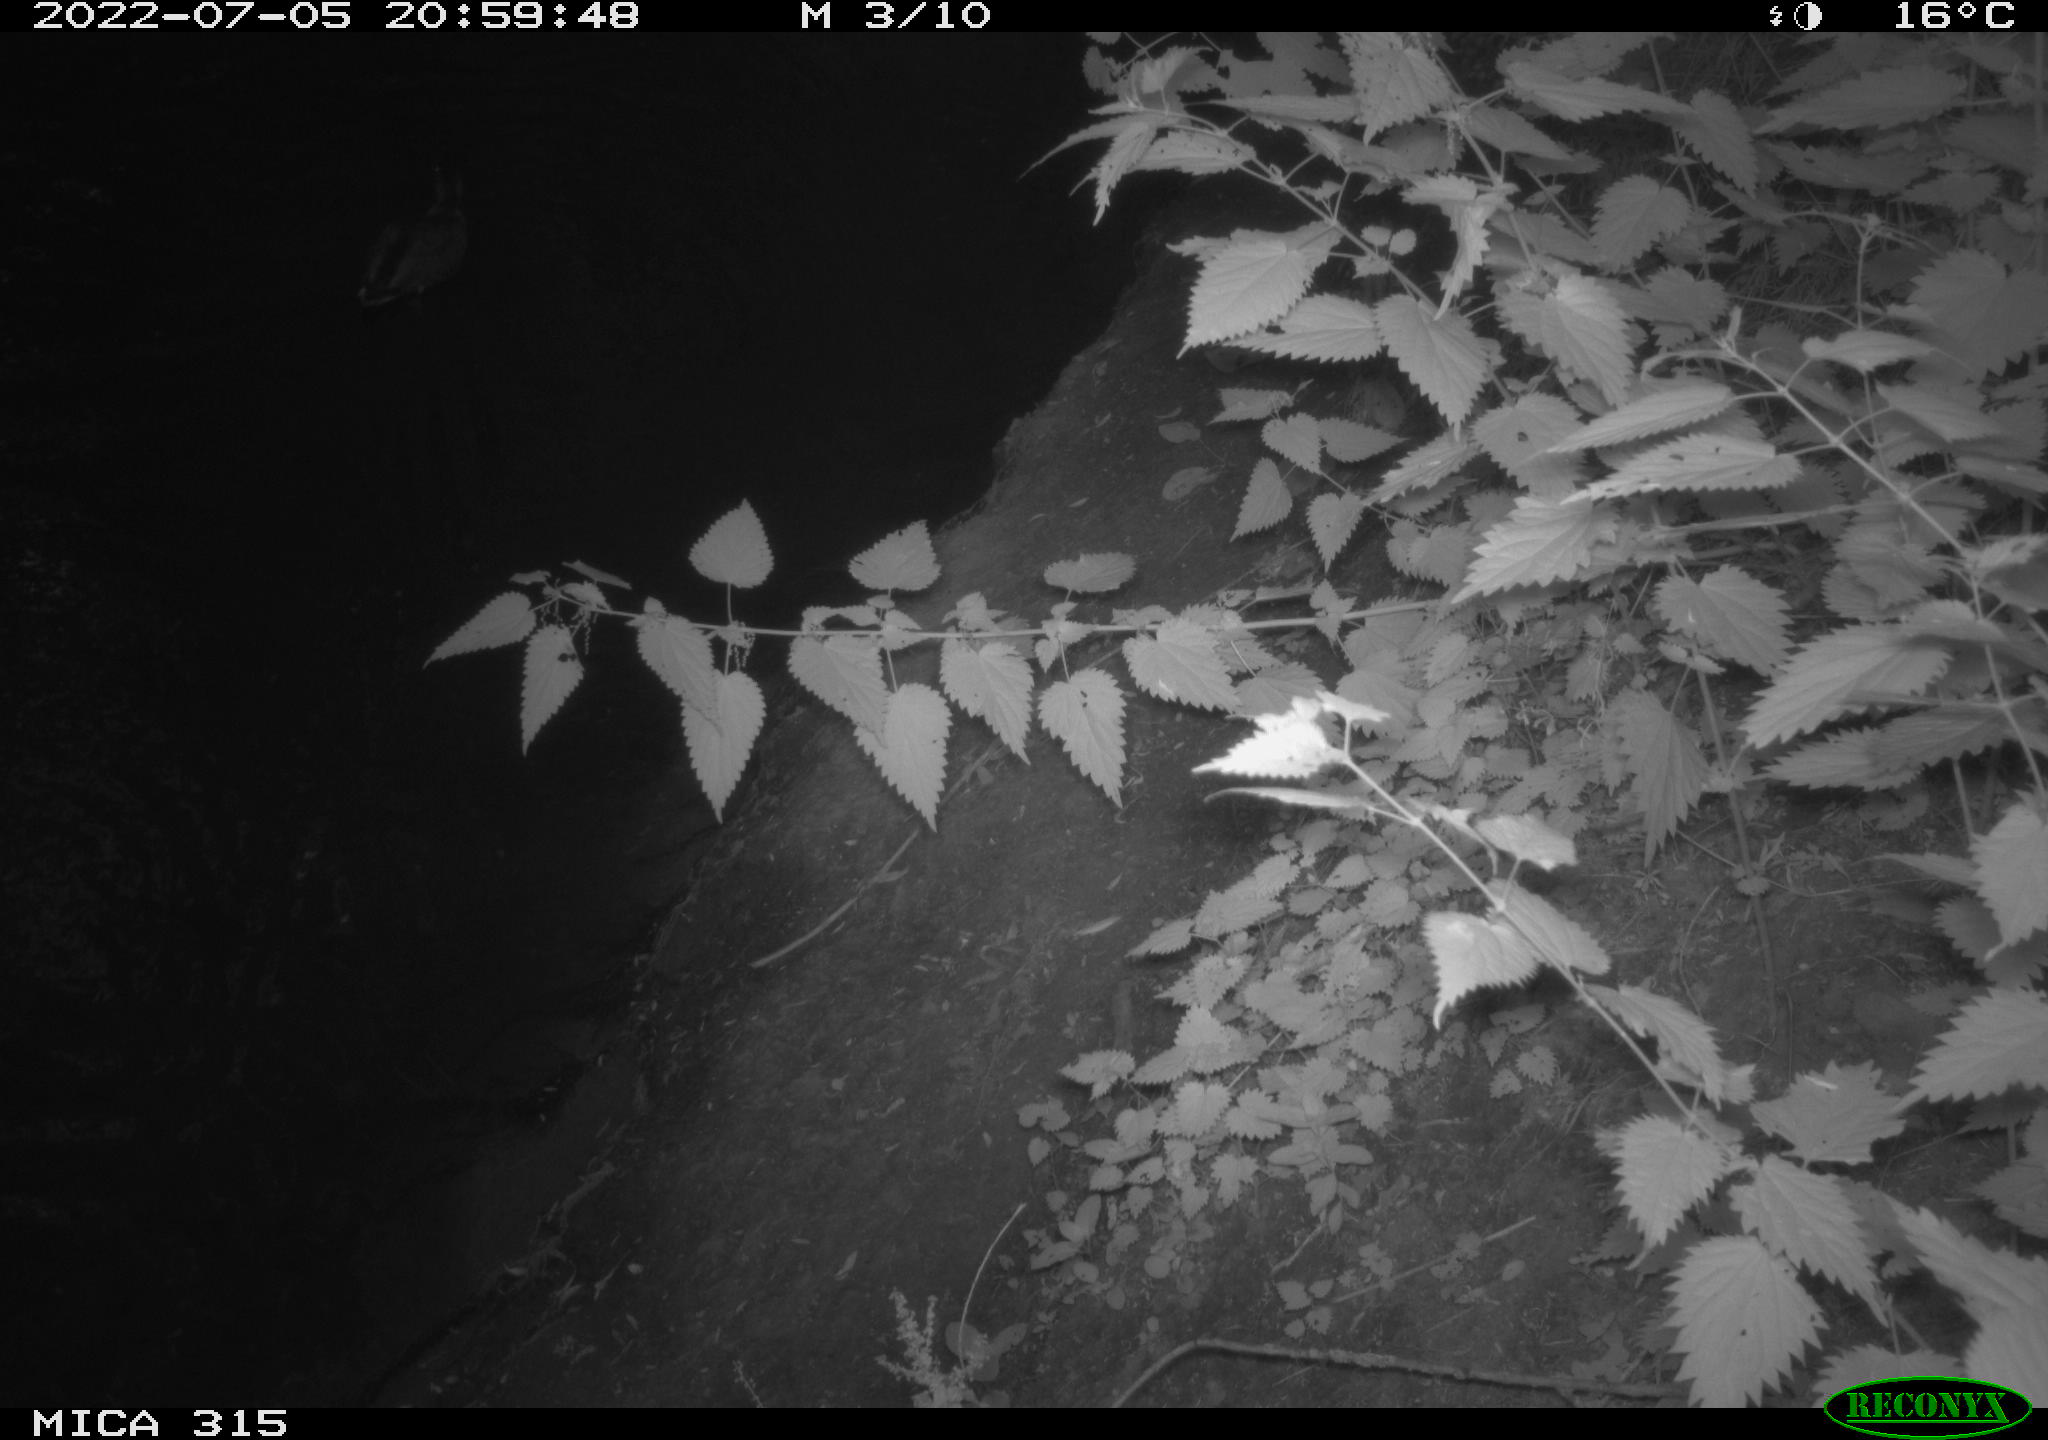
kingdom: Animalia
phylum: Chordata
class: Aves
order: Anseriformes
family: Anatidae
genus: Anas
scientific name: Anas platyrhynchos
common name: Mallard
